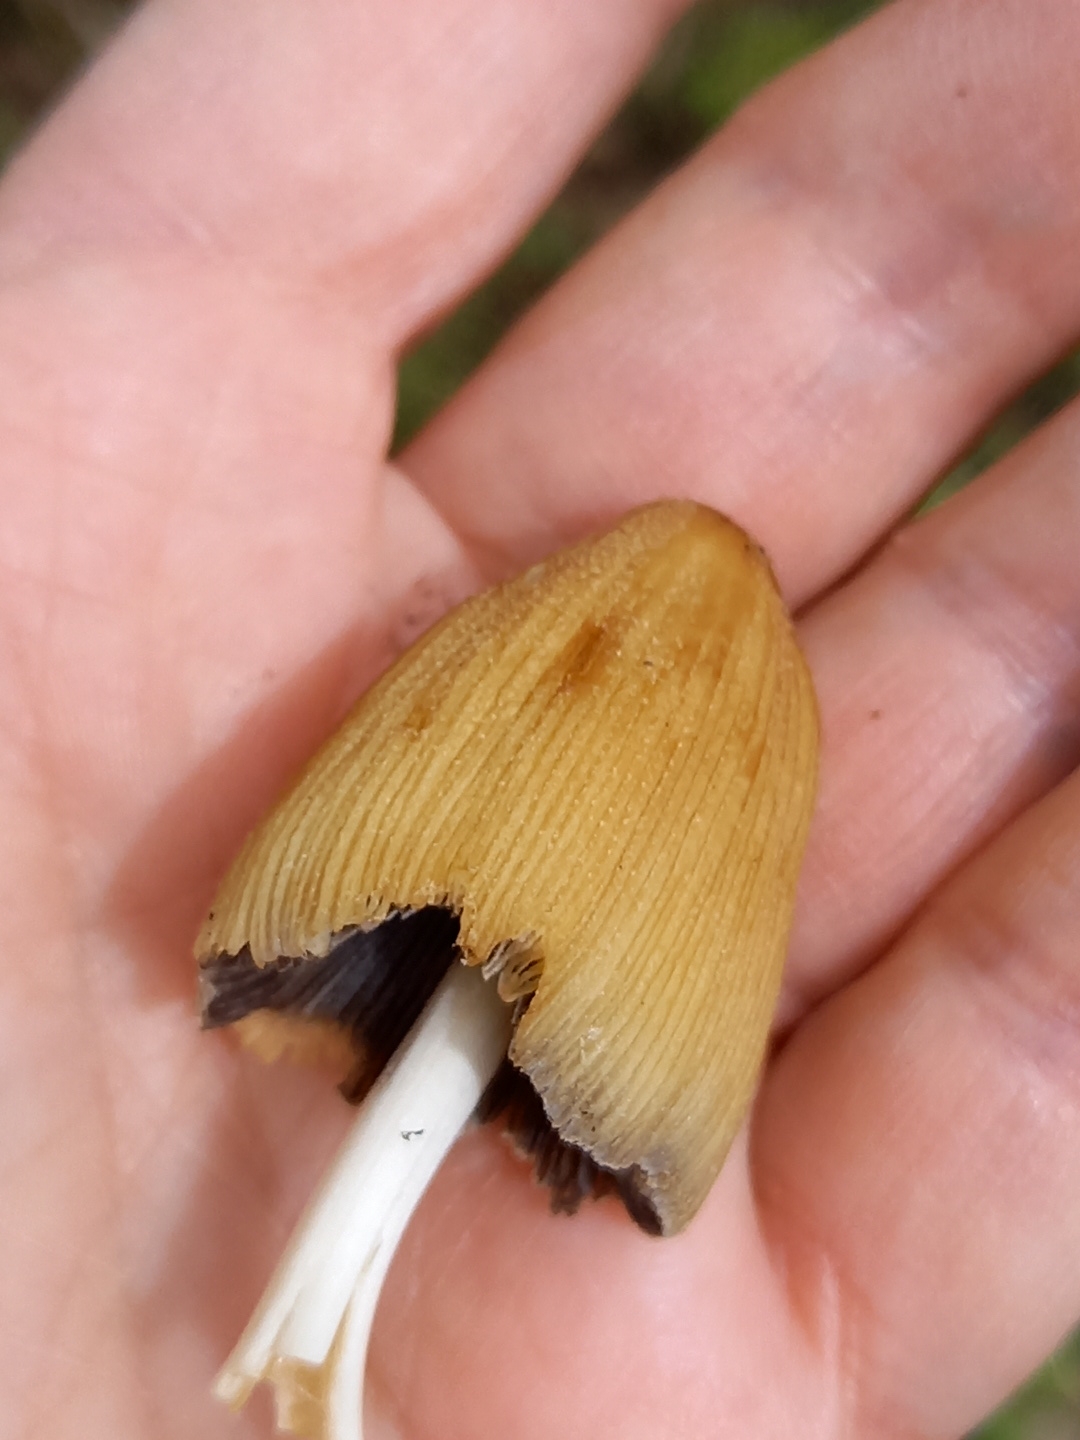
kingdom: Fungi
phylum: Basidiomycota
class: Agaricomycetes
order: Agaricales
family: Psathyrellaceae
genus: Coprinellus
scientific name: Coprinellus micaceus
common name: glimmer-blækhat
